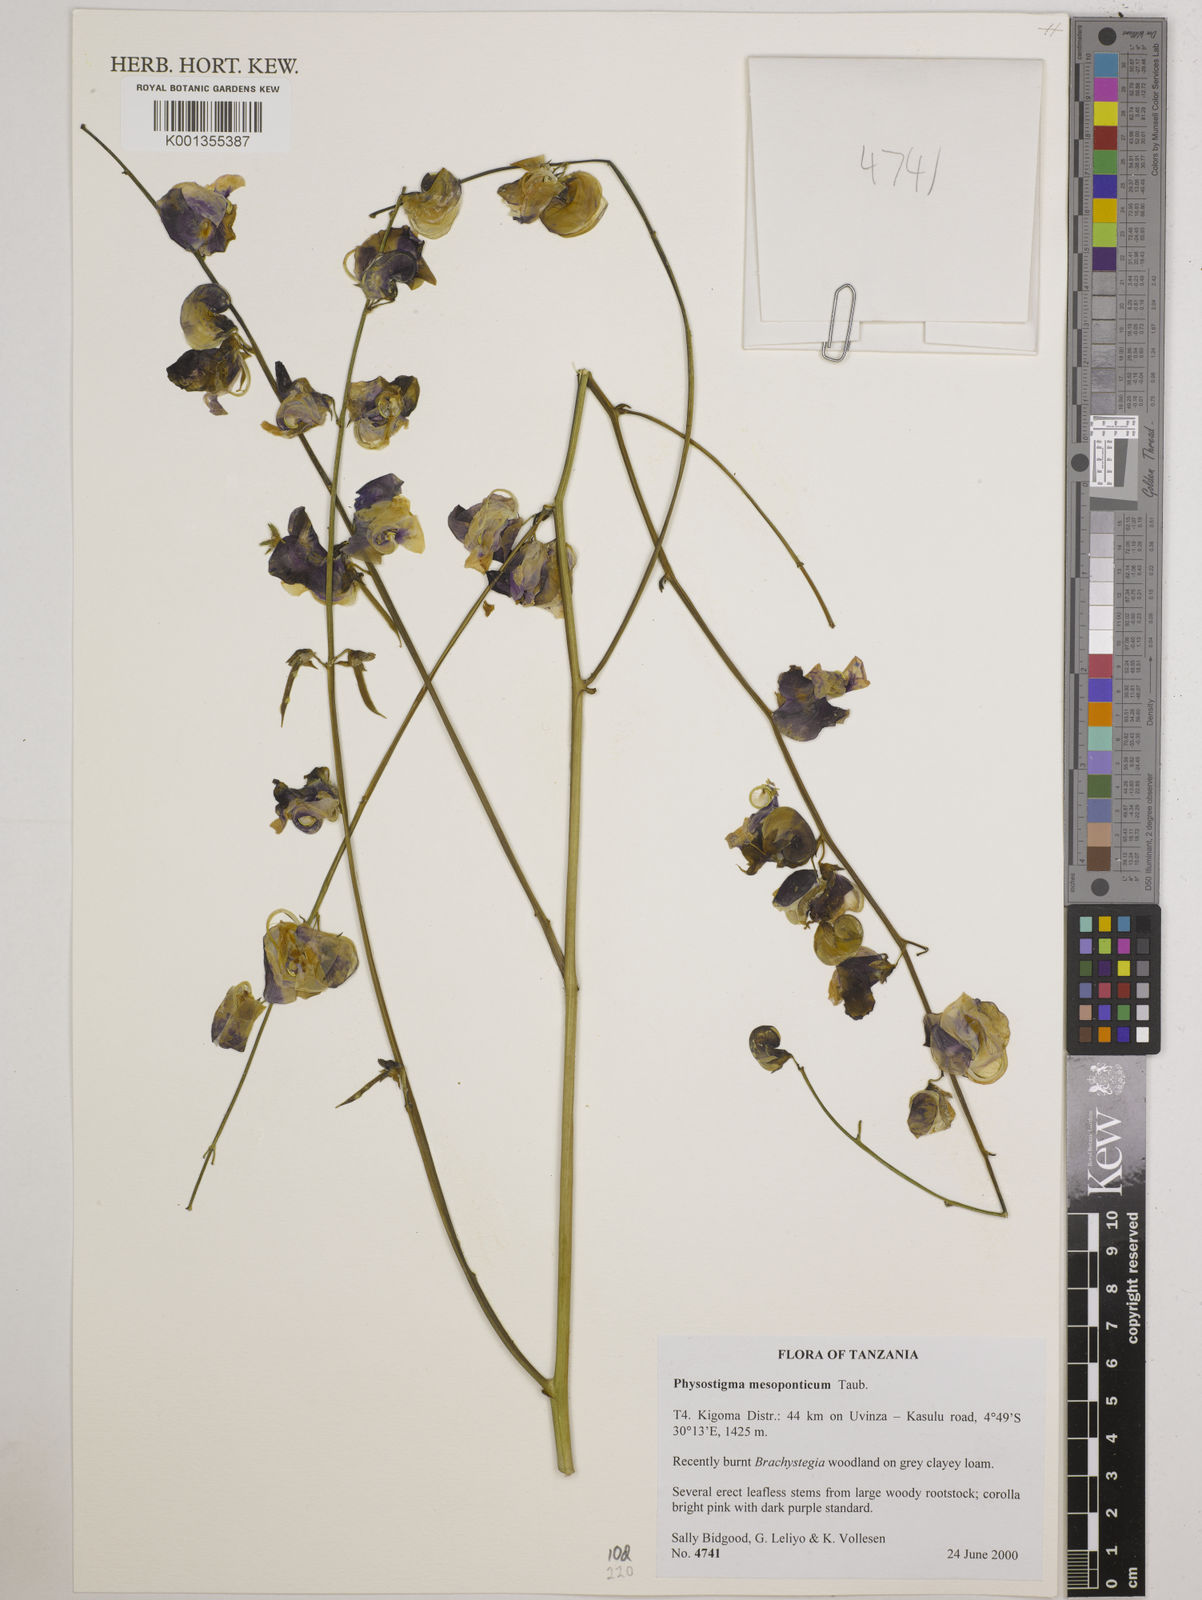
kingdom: Plantae
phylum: Tracheophyta
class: Magnoliopsida
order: Fabales
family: Fabaceae
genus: Physostigma
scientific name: Physostigma mesoponticum
